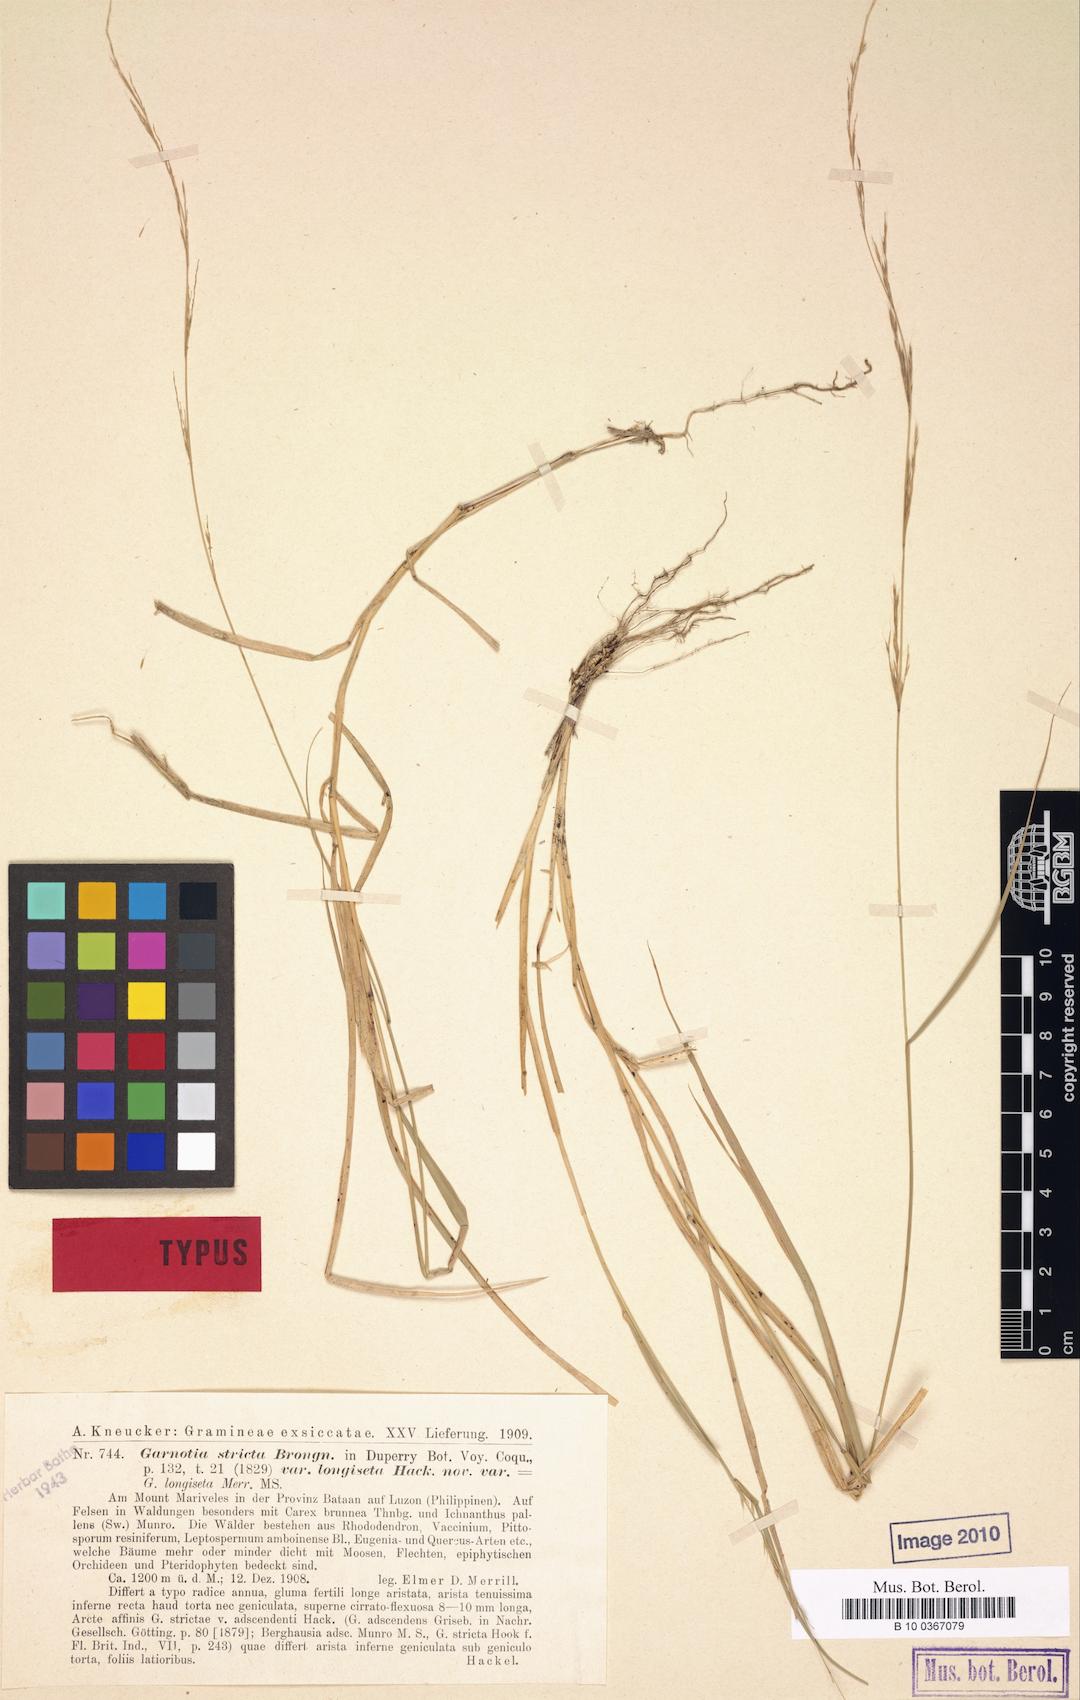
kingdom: Plantae
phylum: Tracheophyta
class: Liliopsida
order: Poales
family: Poaceae
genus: Garnotia
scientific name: Garnotia stricta
